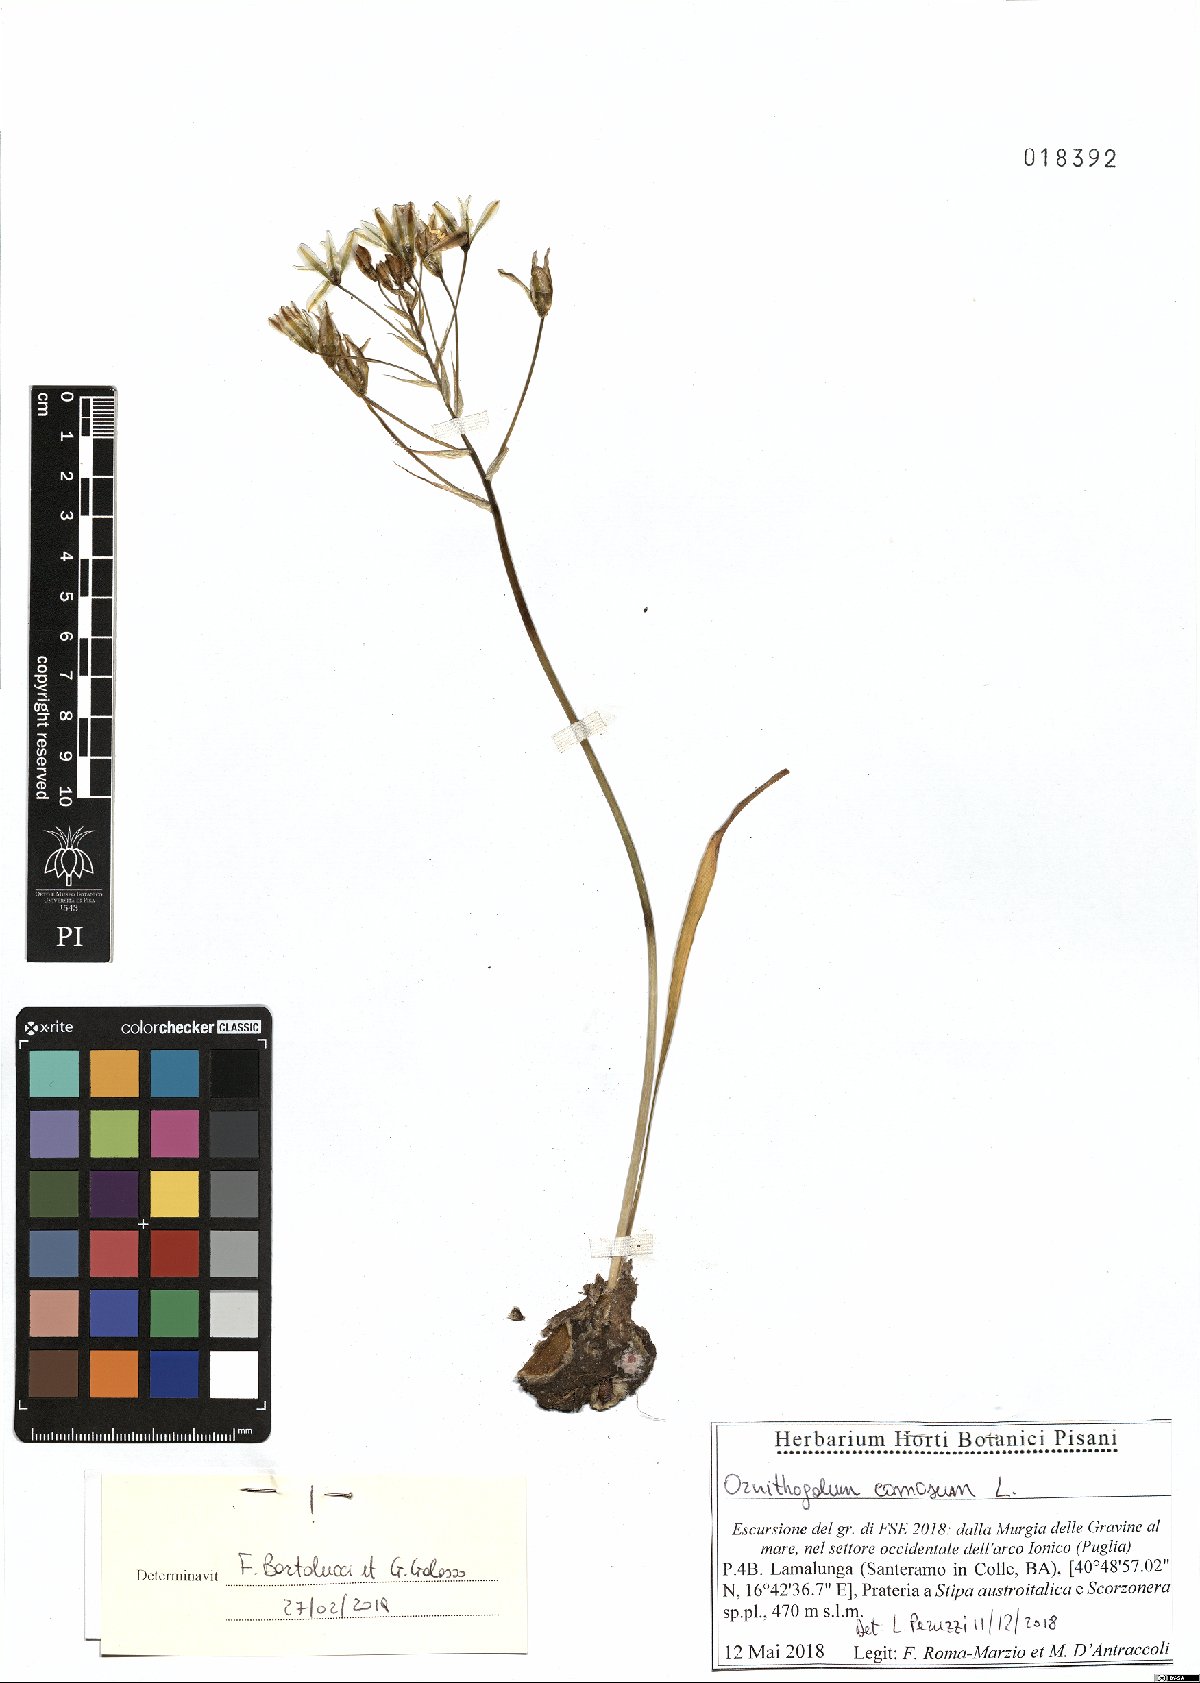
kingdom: Plantae
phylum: Tracheophyta
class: Liliopsida
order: Asparagales
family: Asparagaceae
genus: Ornithogalum
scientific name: Ornithogalum comosum
